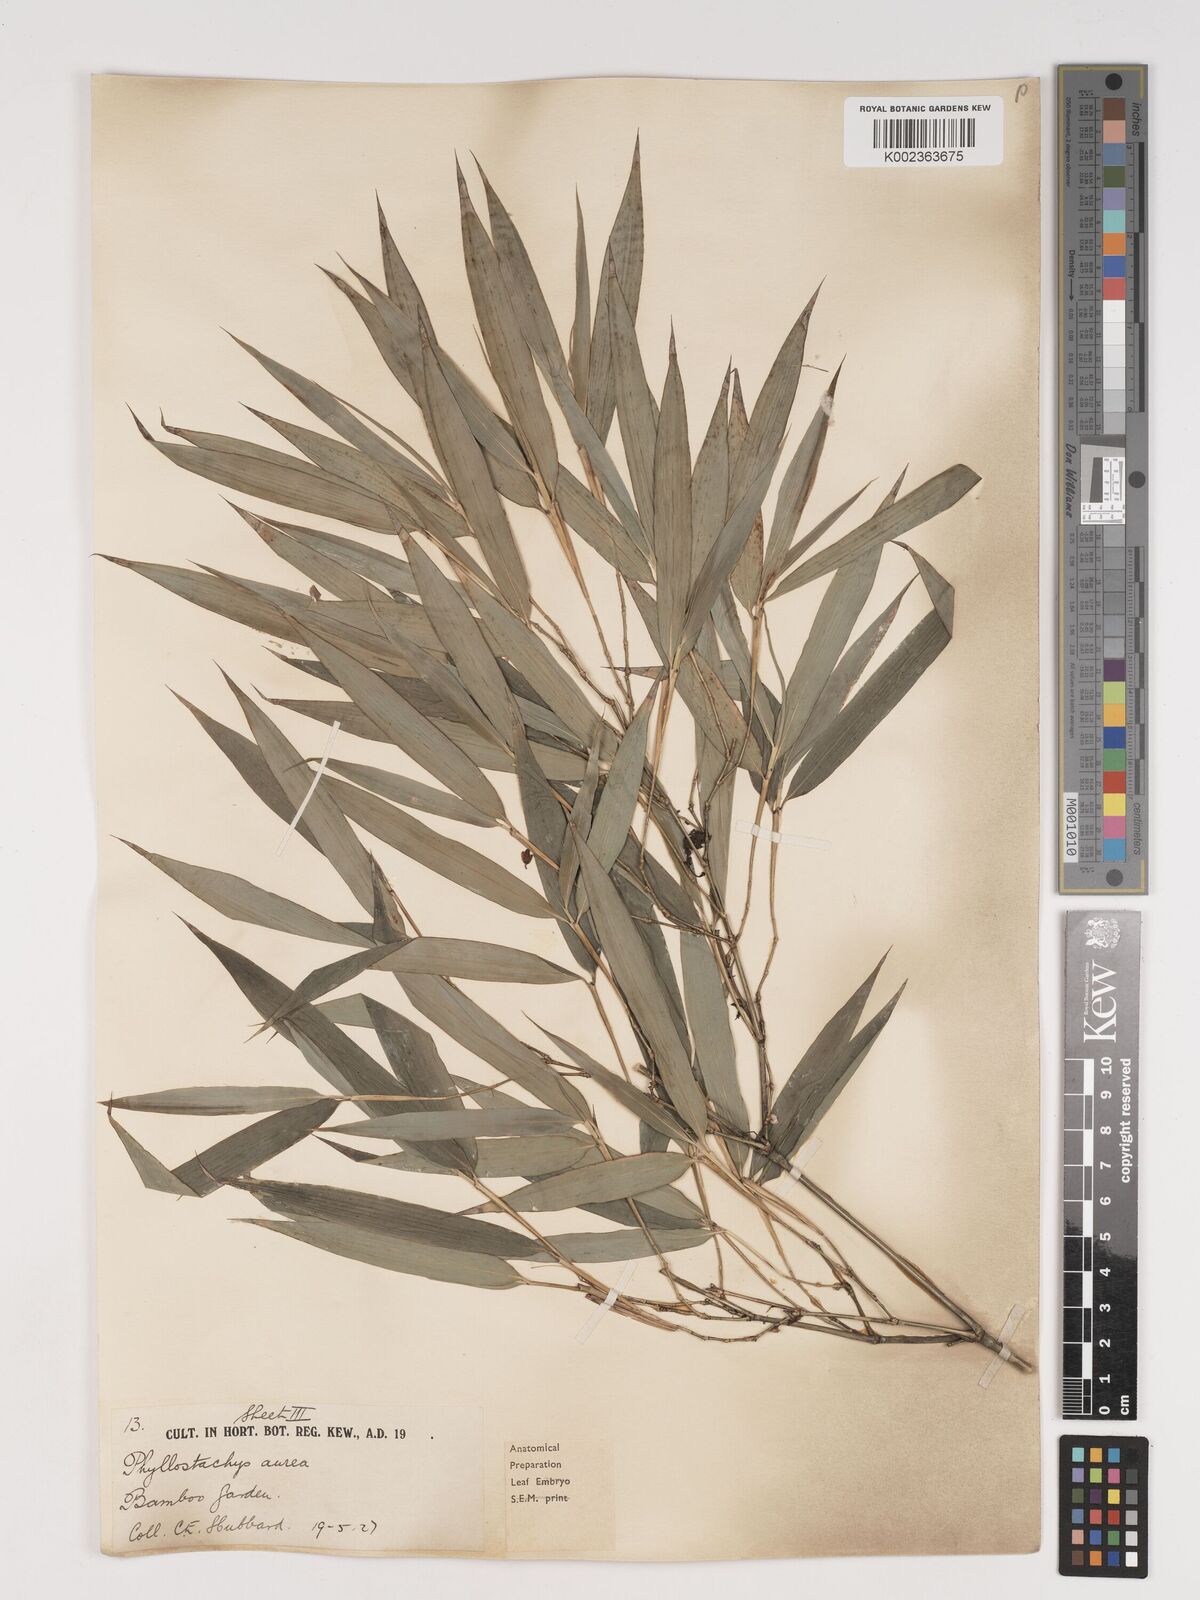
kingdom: Plantae
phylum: Tracheophyta
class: Liliopsida
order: Poales
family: Poaceae
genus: Phyllostachys
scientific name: Phyllostachys aurea
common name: Golden bamboo
